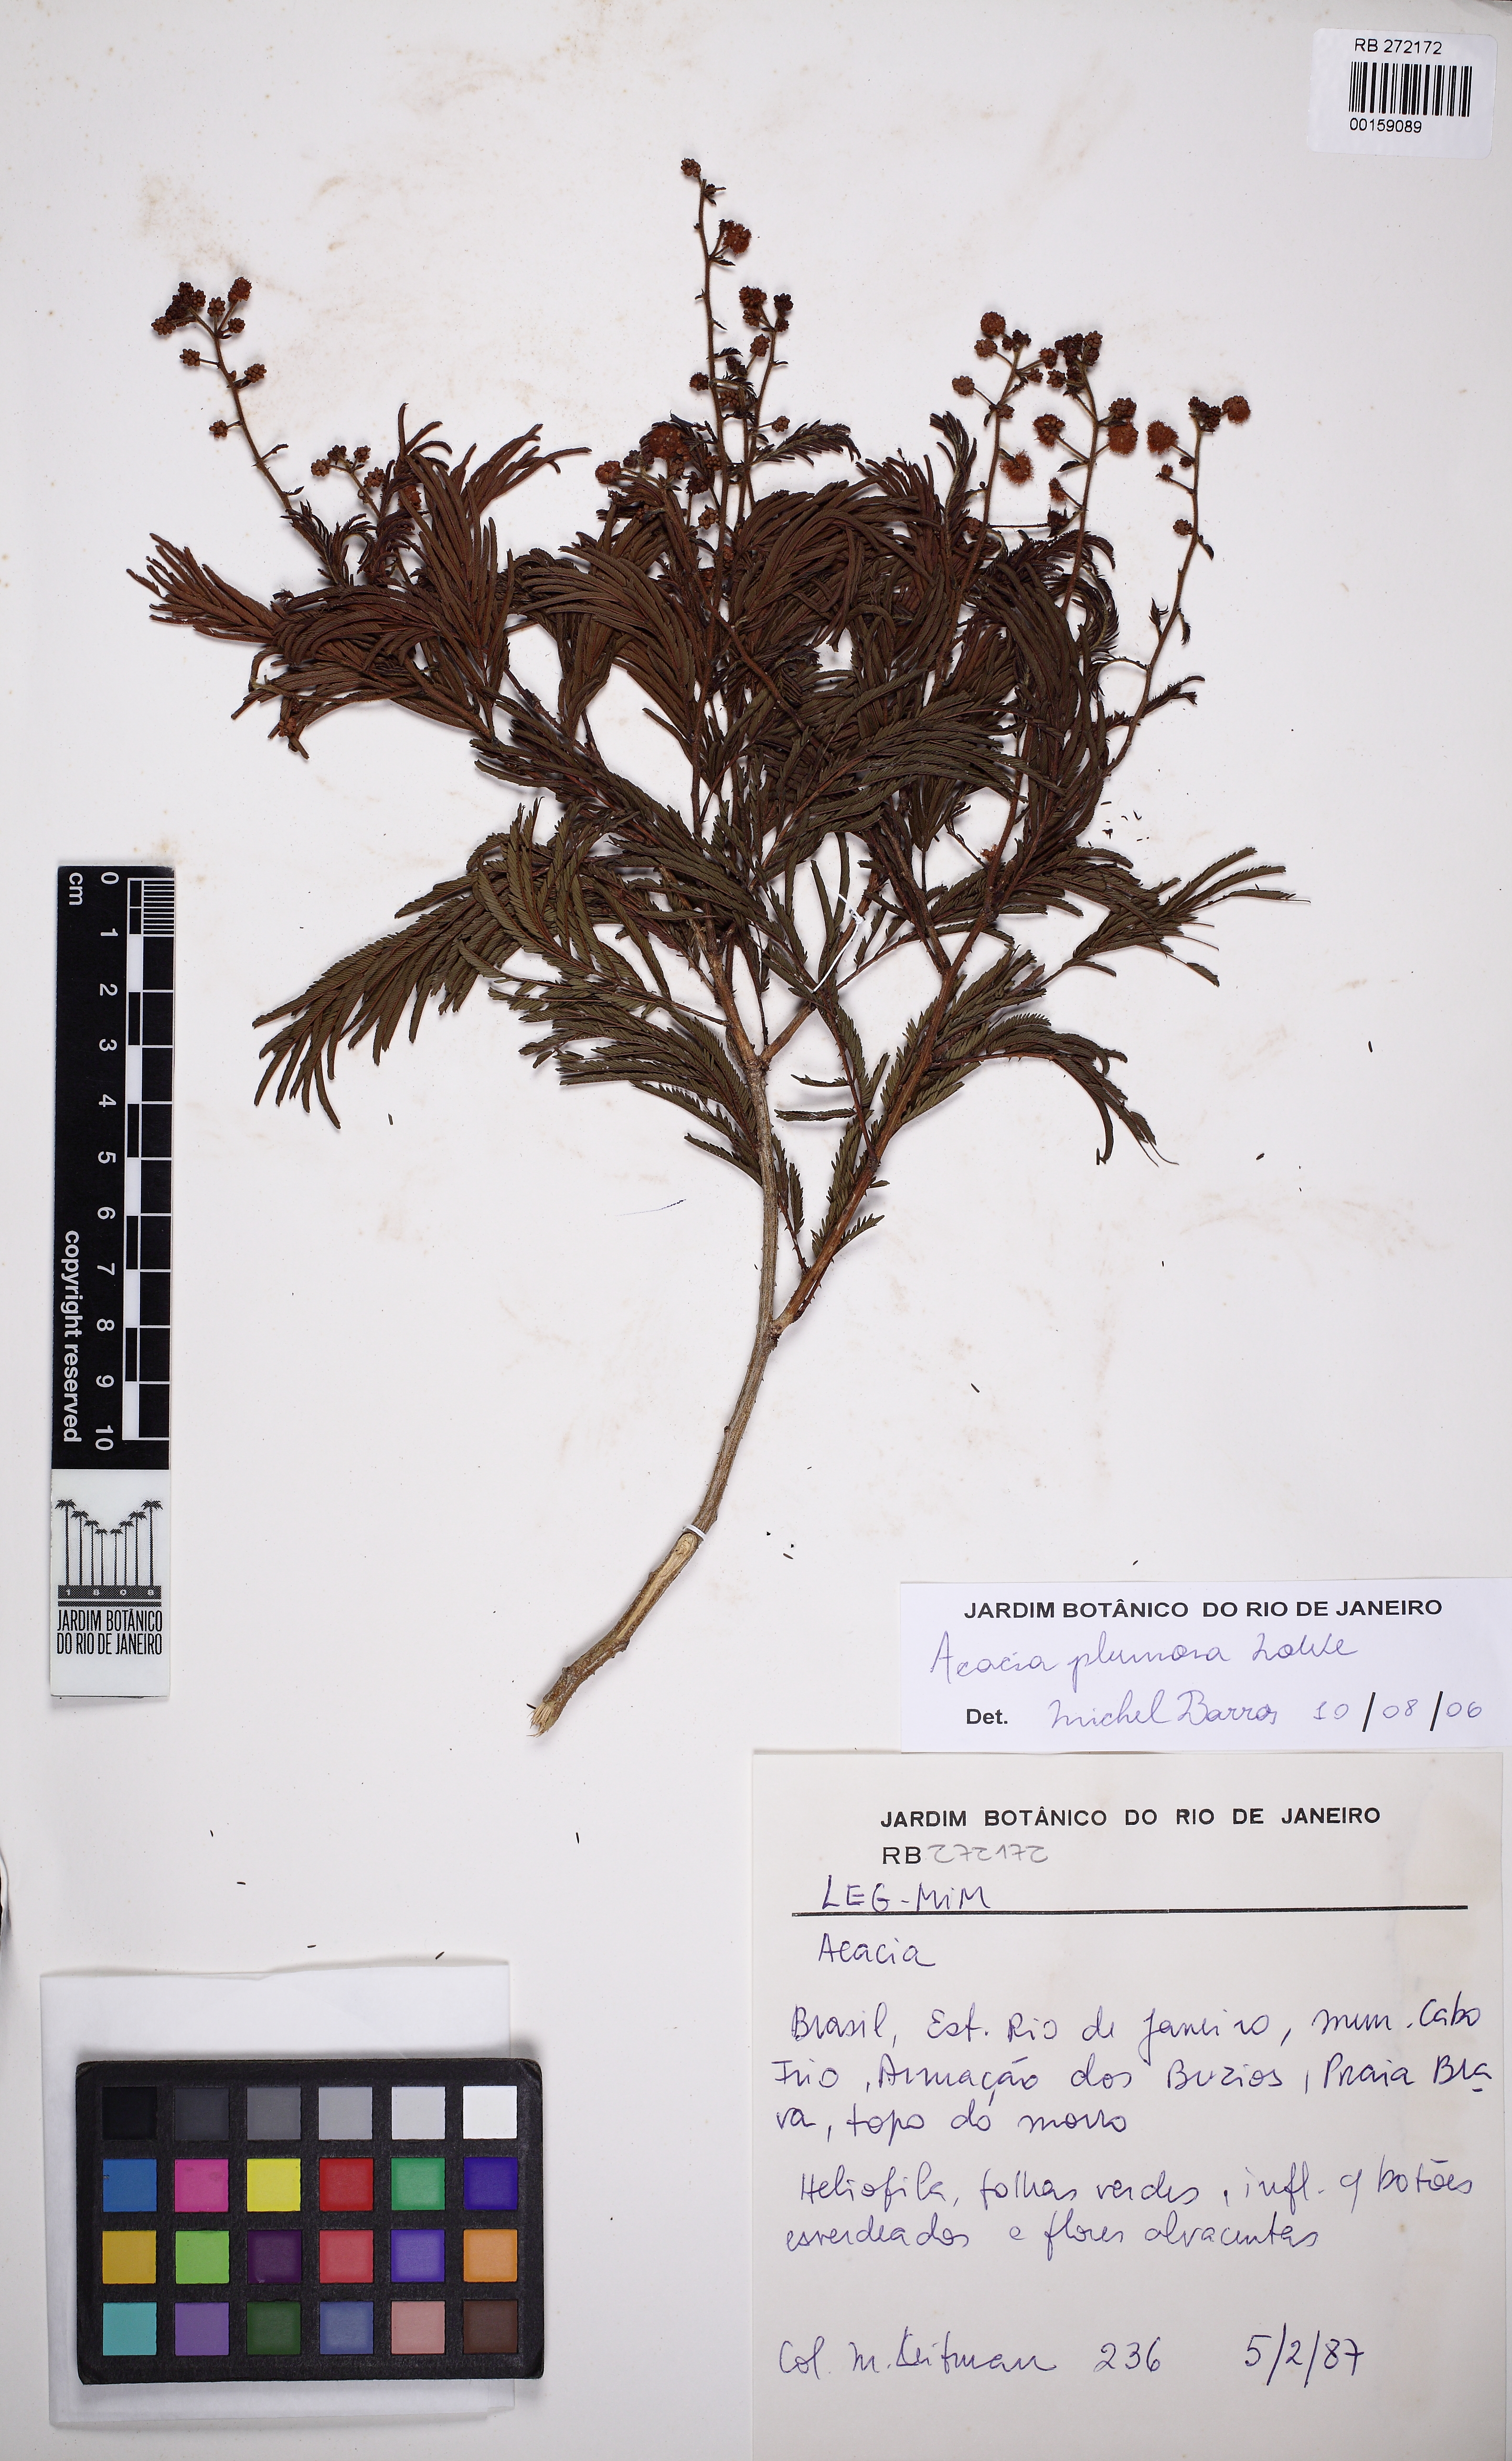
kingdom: Plantae
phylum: Tracheophyta
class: Magnoliopsida
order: Fabales
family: Fabaceae
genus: Senegalia
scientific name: Senegalia angico
